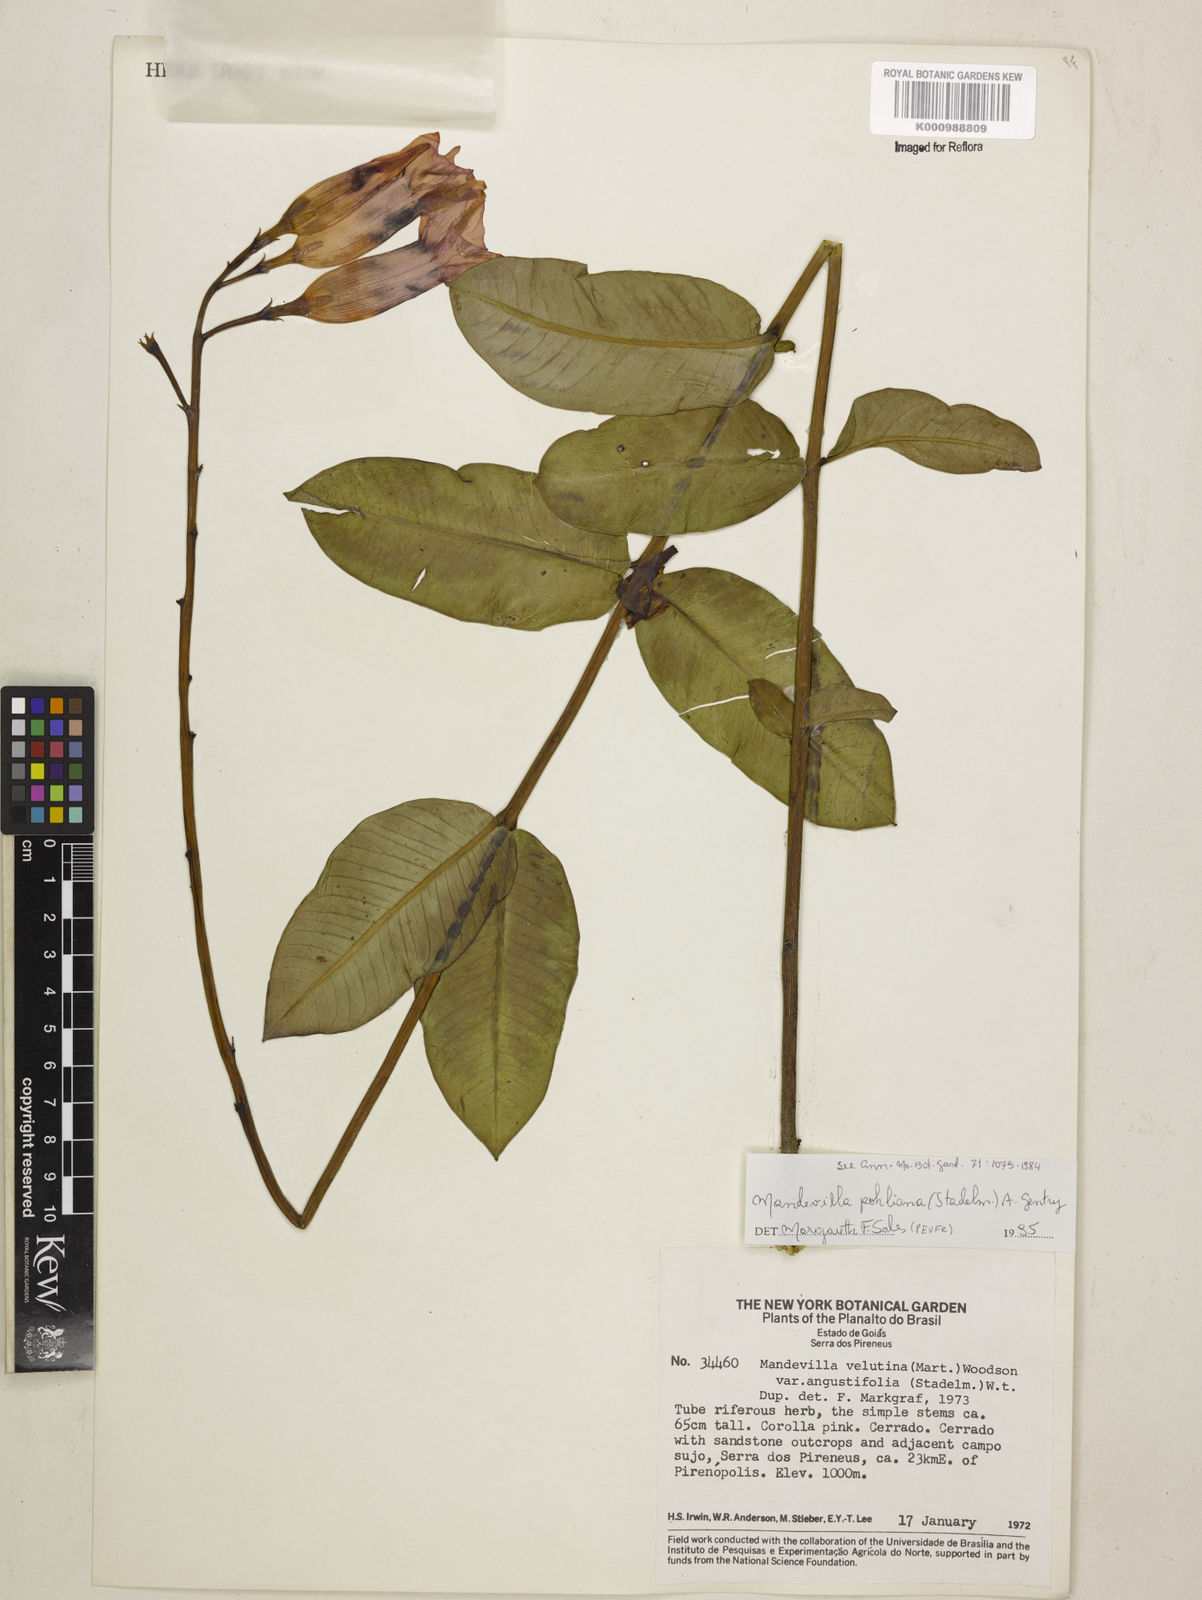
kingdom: Plantae
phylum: Tracheophyta
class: Magnoliopsida
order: Gentianales
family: Apocynaceae
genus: Mandevilla
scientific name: Mandevilla pohliana
